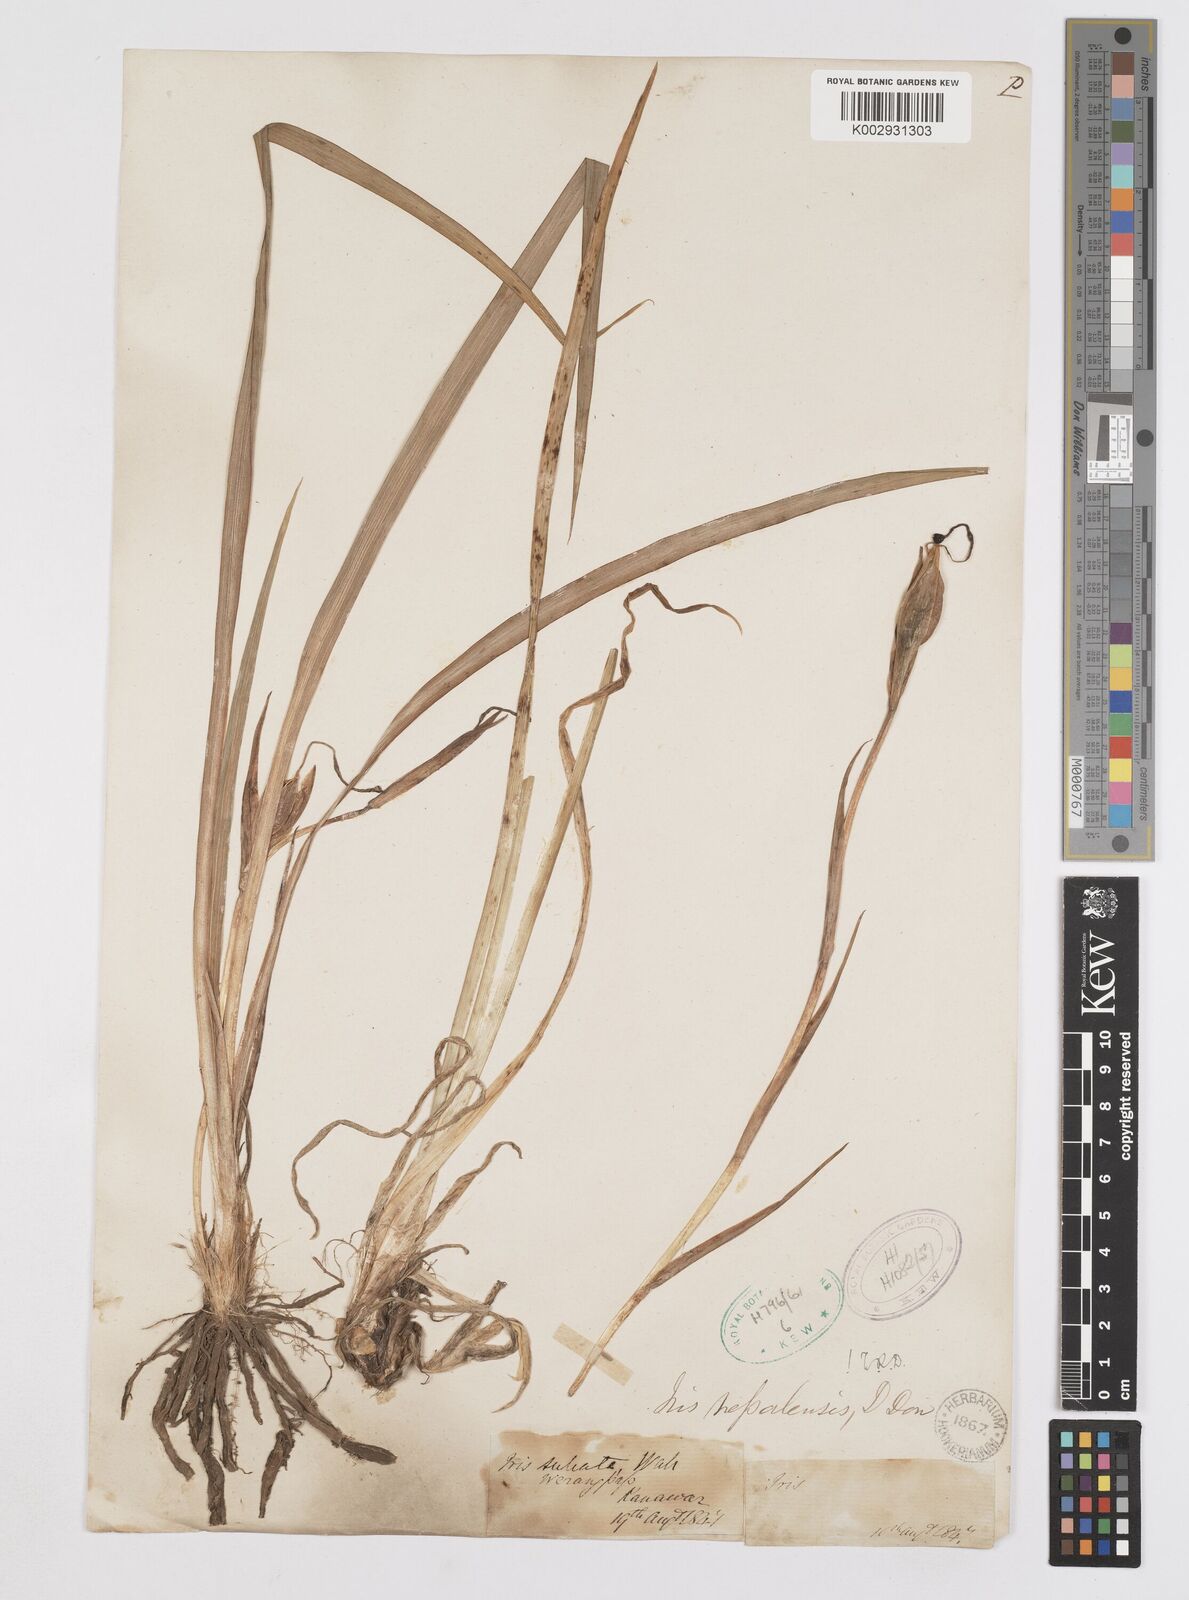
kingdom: Plantae
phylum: Tracheophyta
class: Liliopsida
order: Asparagales
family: Iridaceae
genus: Iris
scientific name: Iris decora
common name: Nepal iris
